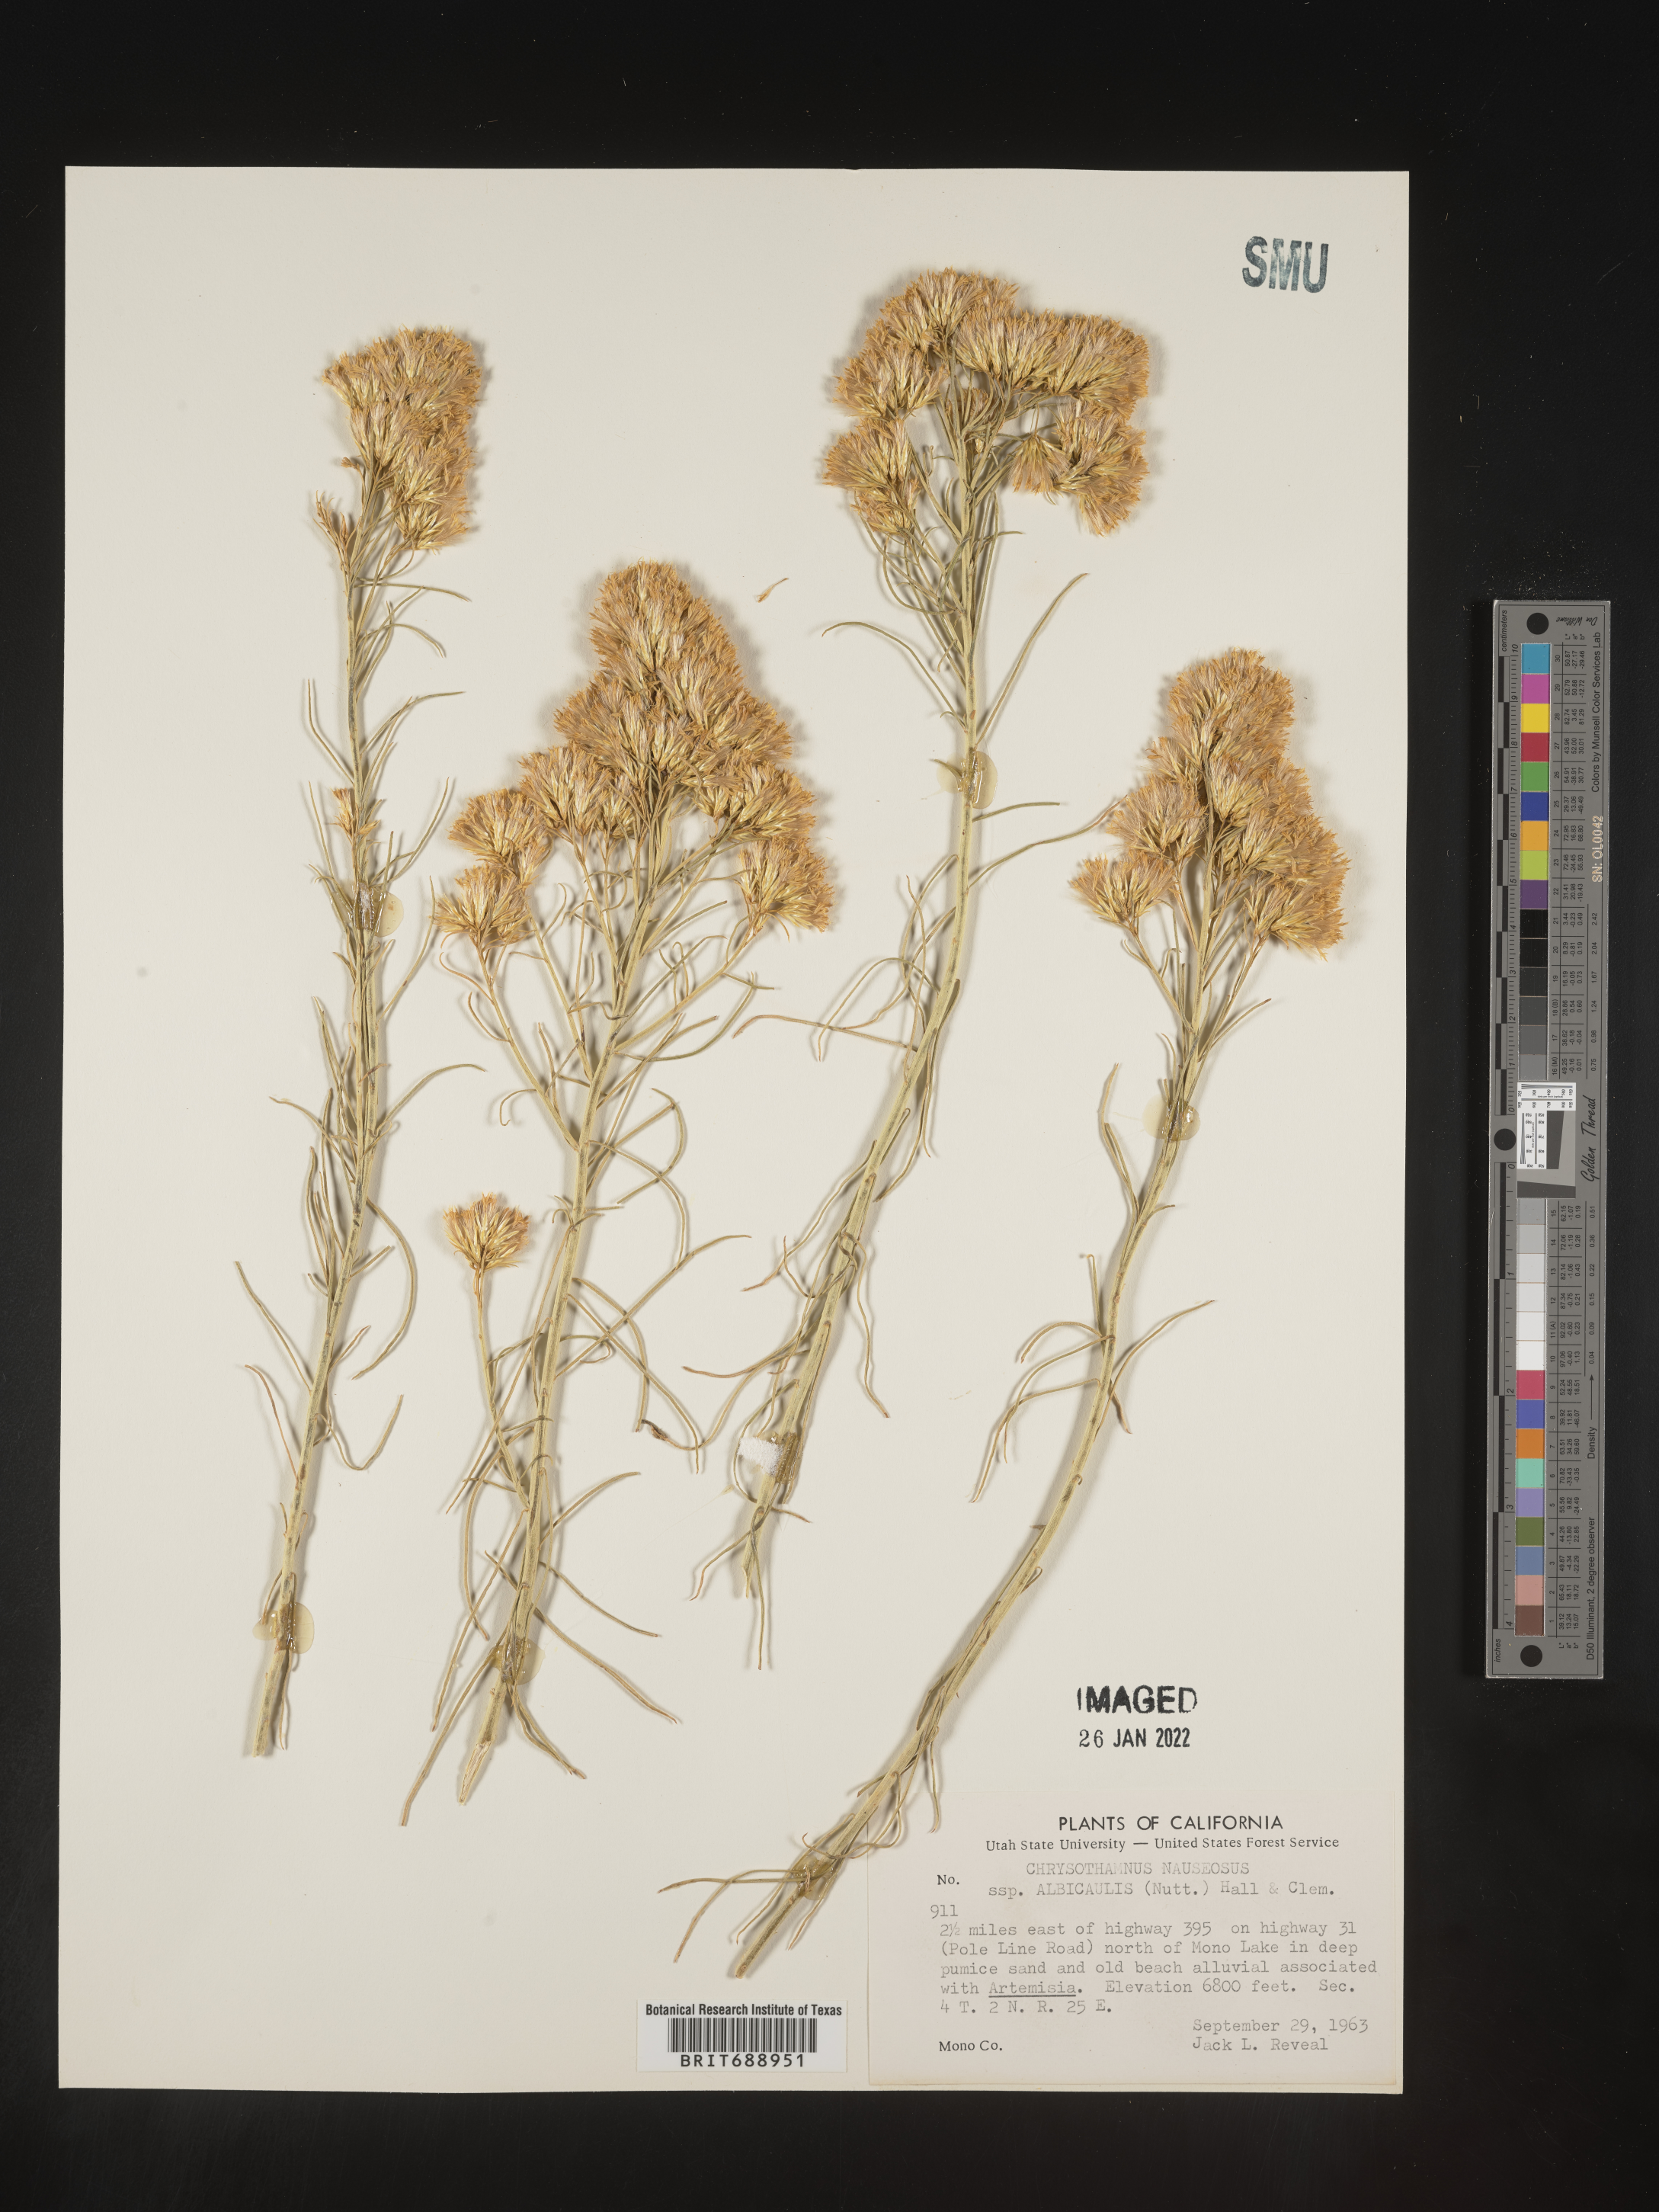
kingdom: Plantae
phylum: Tracheophyta
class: Magnoliopsida
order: Asterales
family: Asteraceae
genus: Ericameria
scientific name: Ericameria nauseosa
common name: Rubber rabbitbrush
